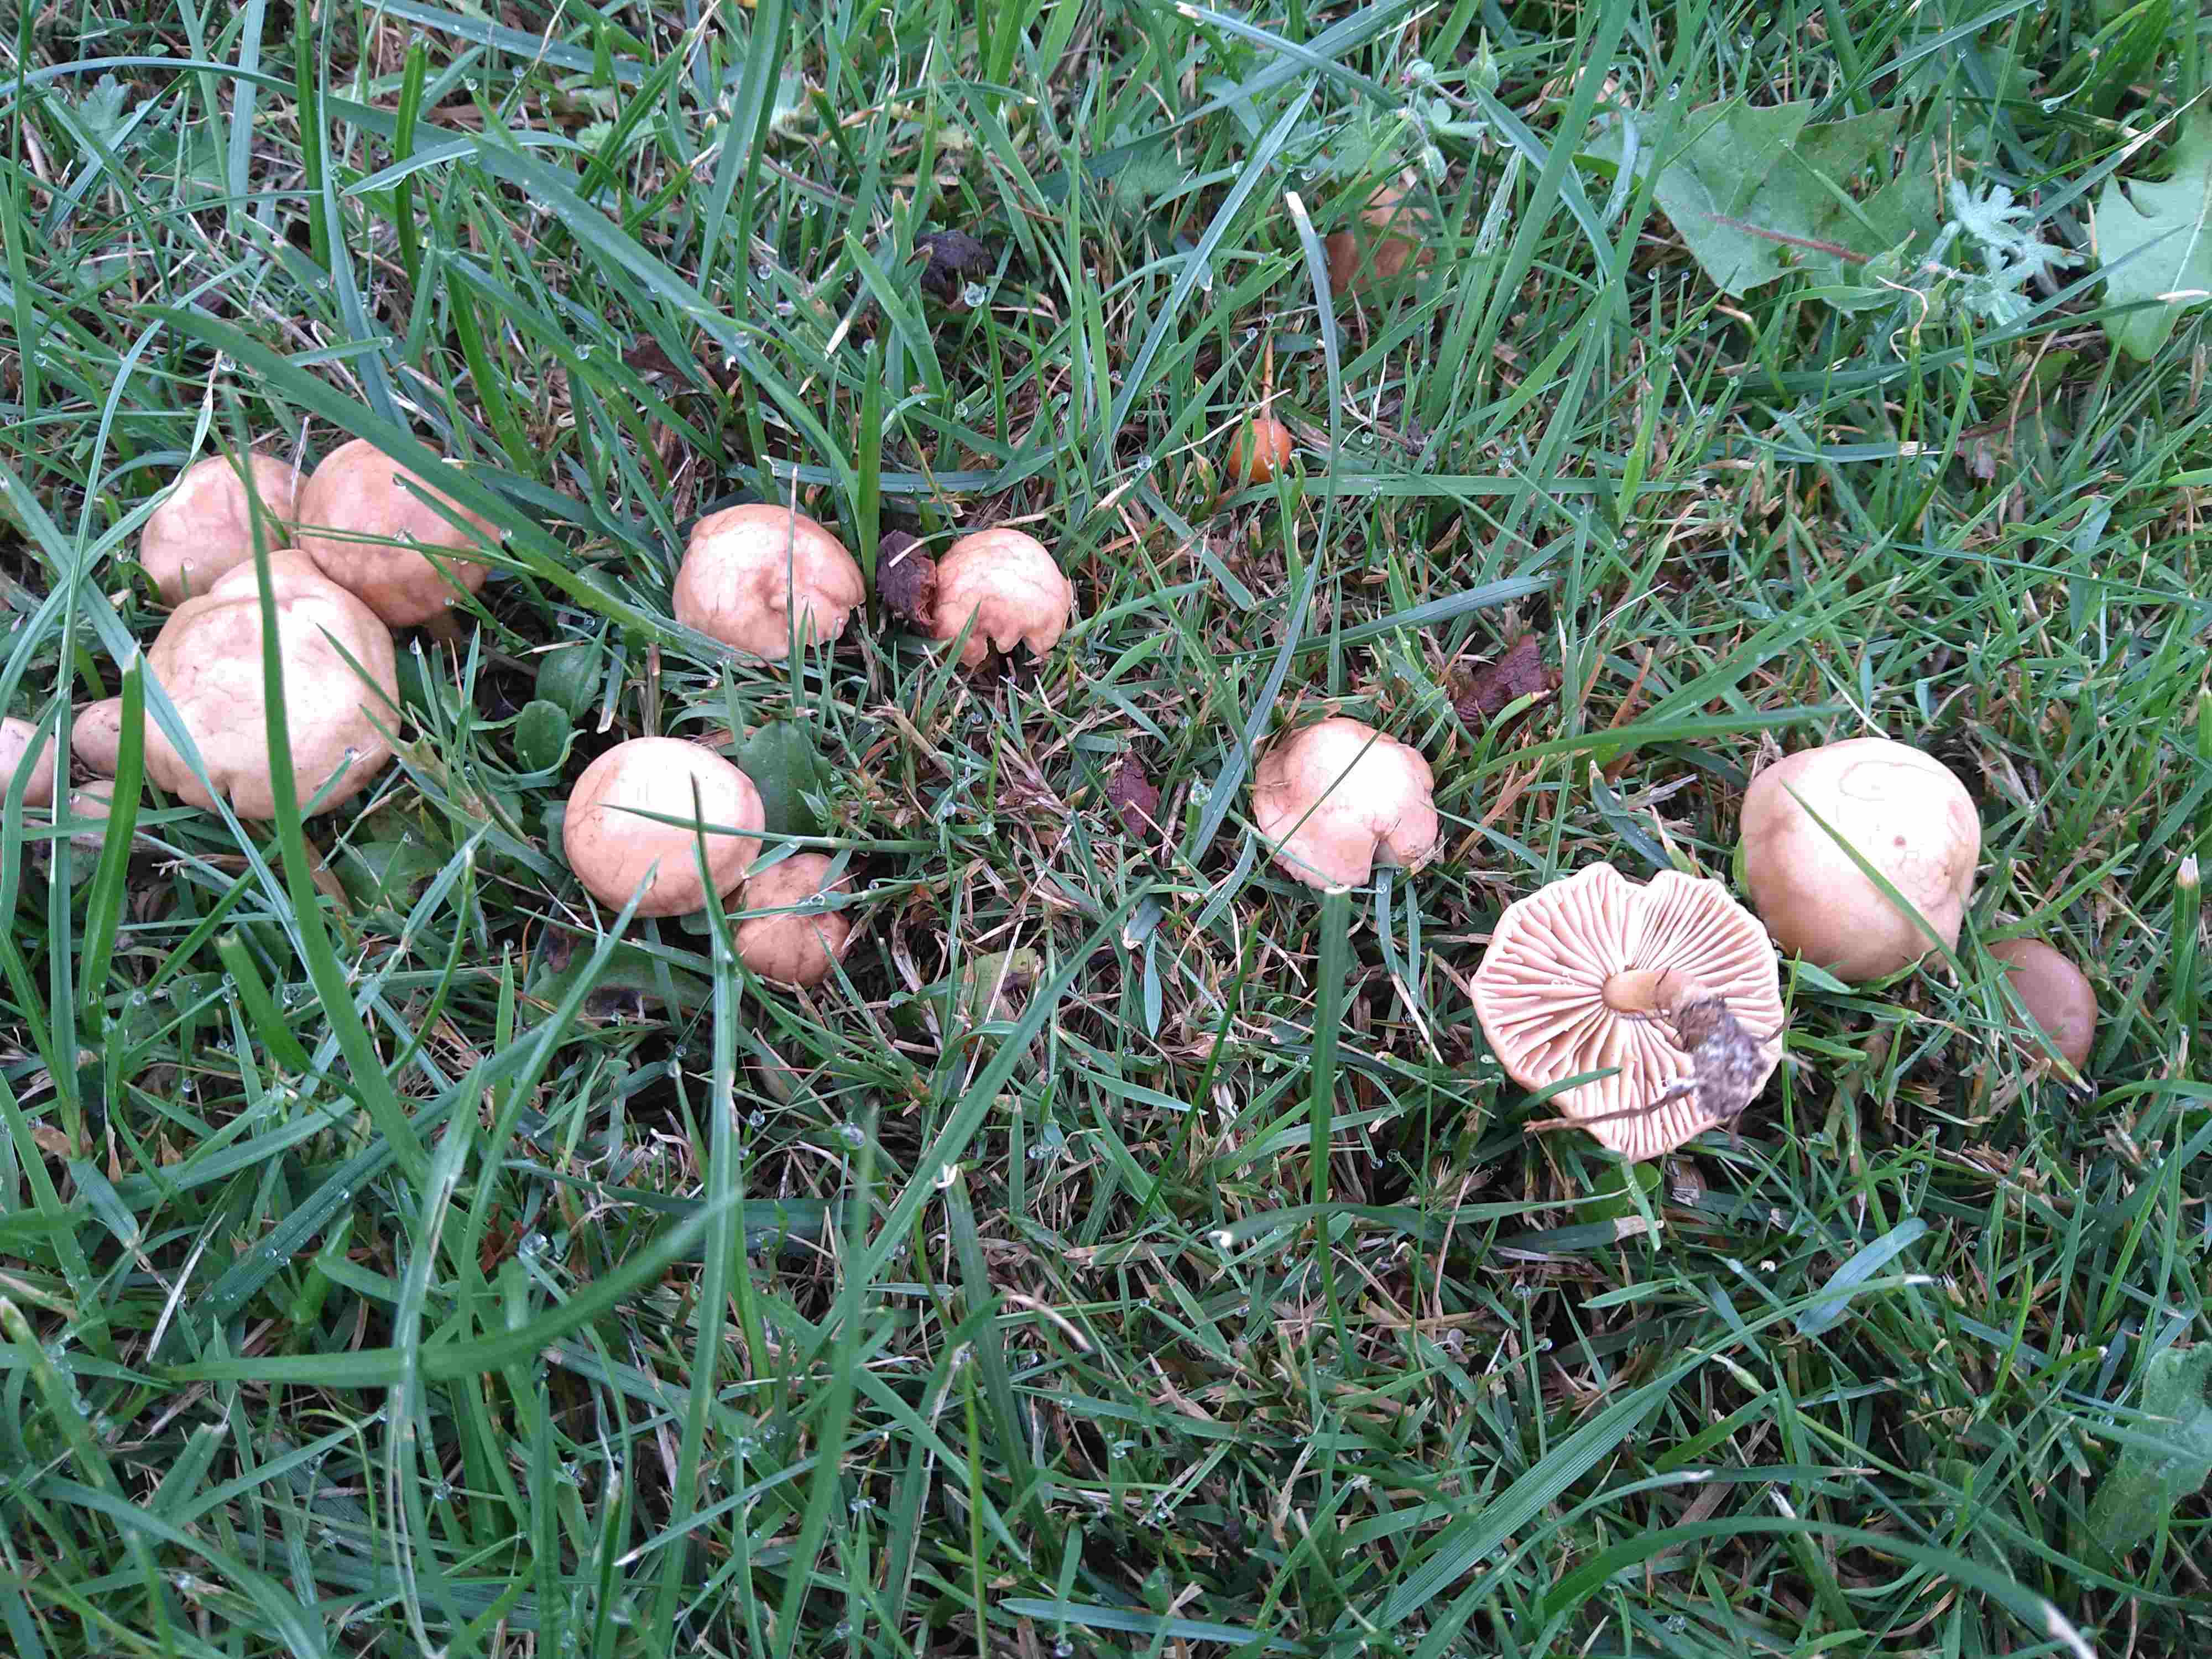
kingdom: Fungi
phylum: Basidiomycota
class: Agaricomycetes
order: Agaricales
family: Marasmiaceae
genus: Marasmius
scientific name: Marasmius oreades
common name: elledans-bruskhat
